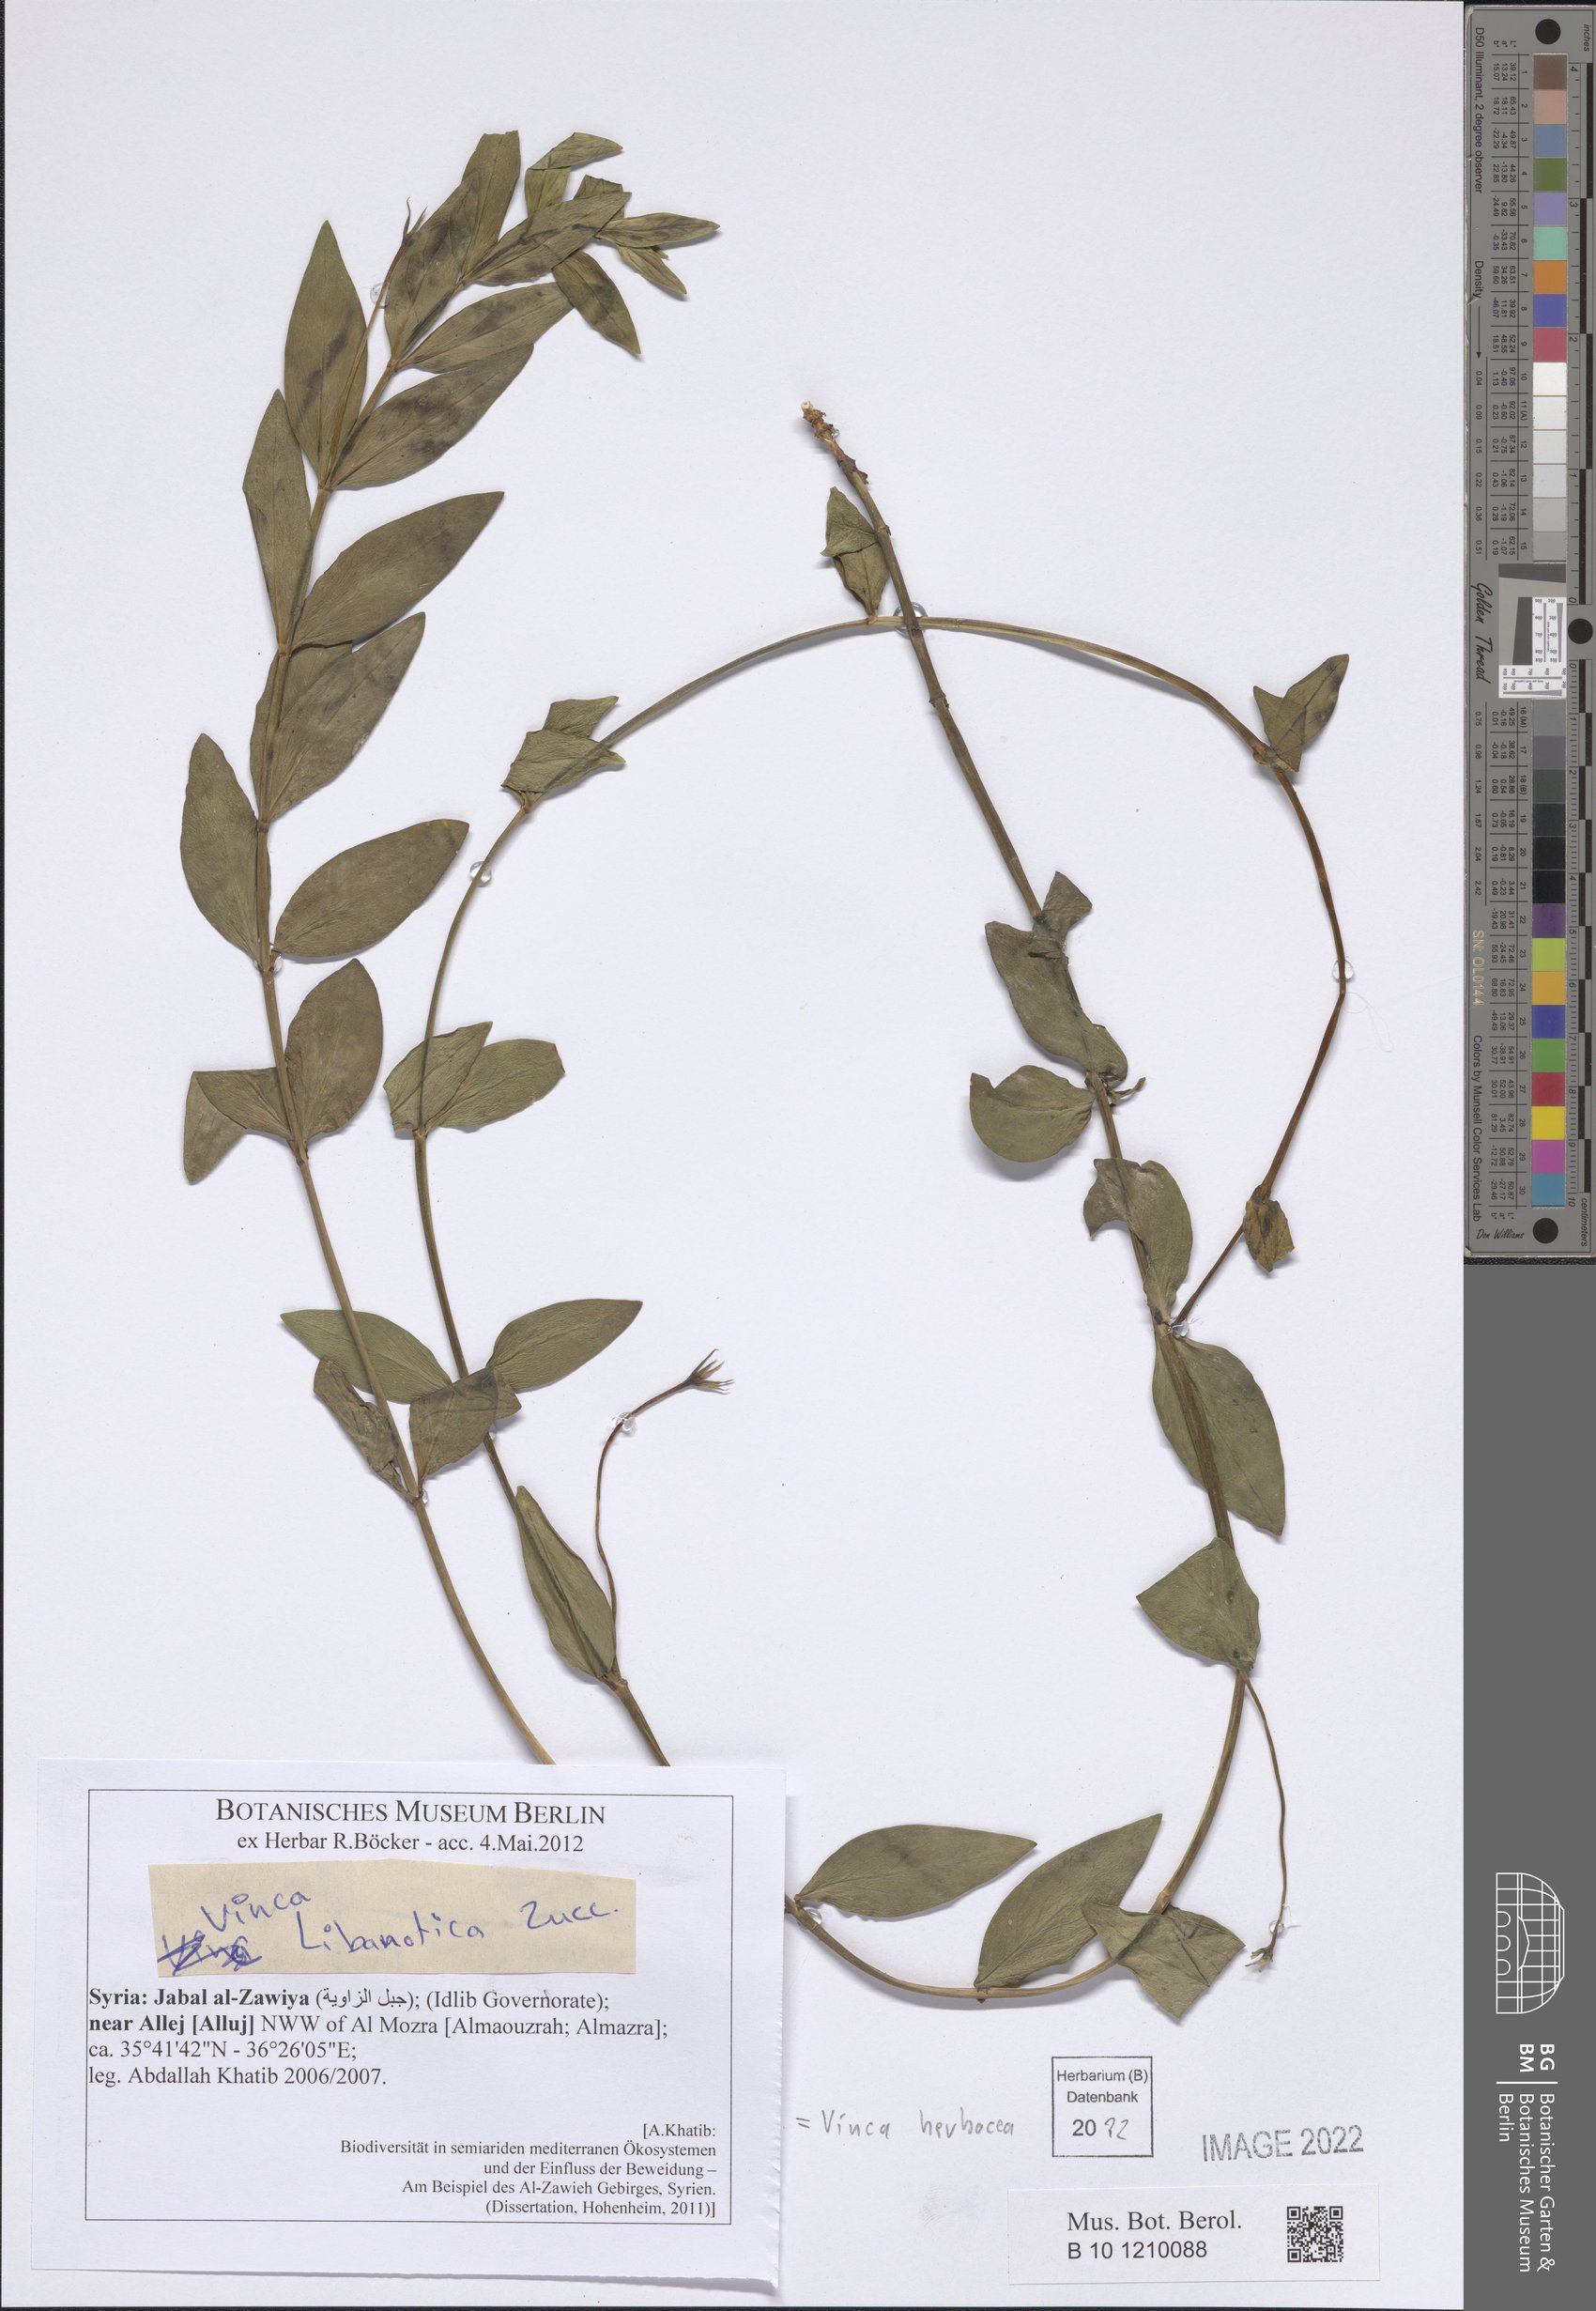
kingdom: Plantae
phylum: Tracheophyta
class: Magnoliopsida
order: Gentianales
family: Apocynaceae
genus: Vinca
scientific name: Vinca herbacea
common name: Herbaceous periwinkle
